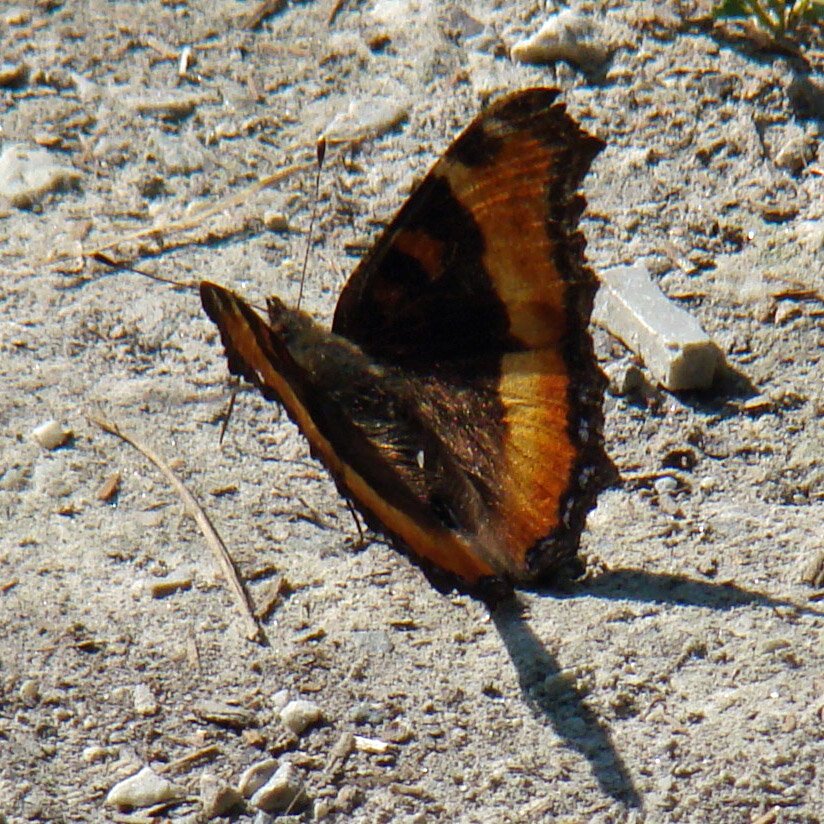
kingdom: Animalia
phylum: Arthropoda
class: Insecta
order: Lepidoptera
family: Nymphalidae
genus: Aglais
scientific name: Aglais milberti
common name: Milbert's Tortoiseshell
